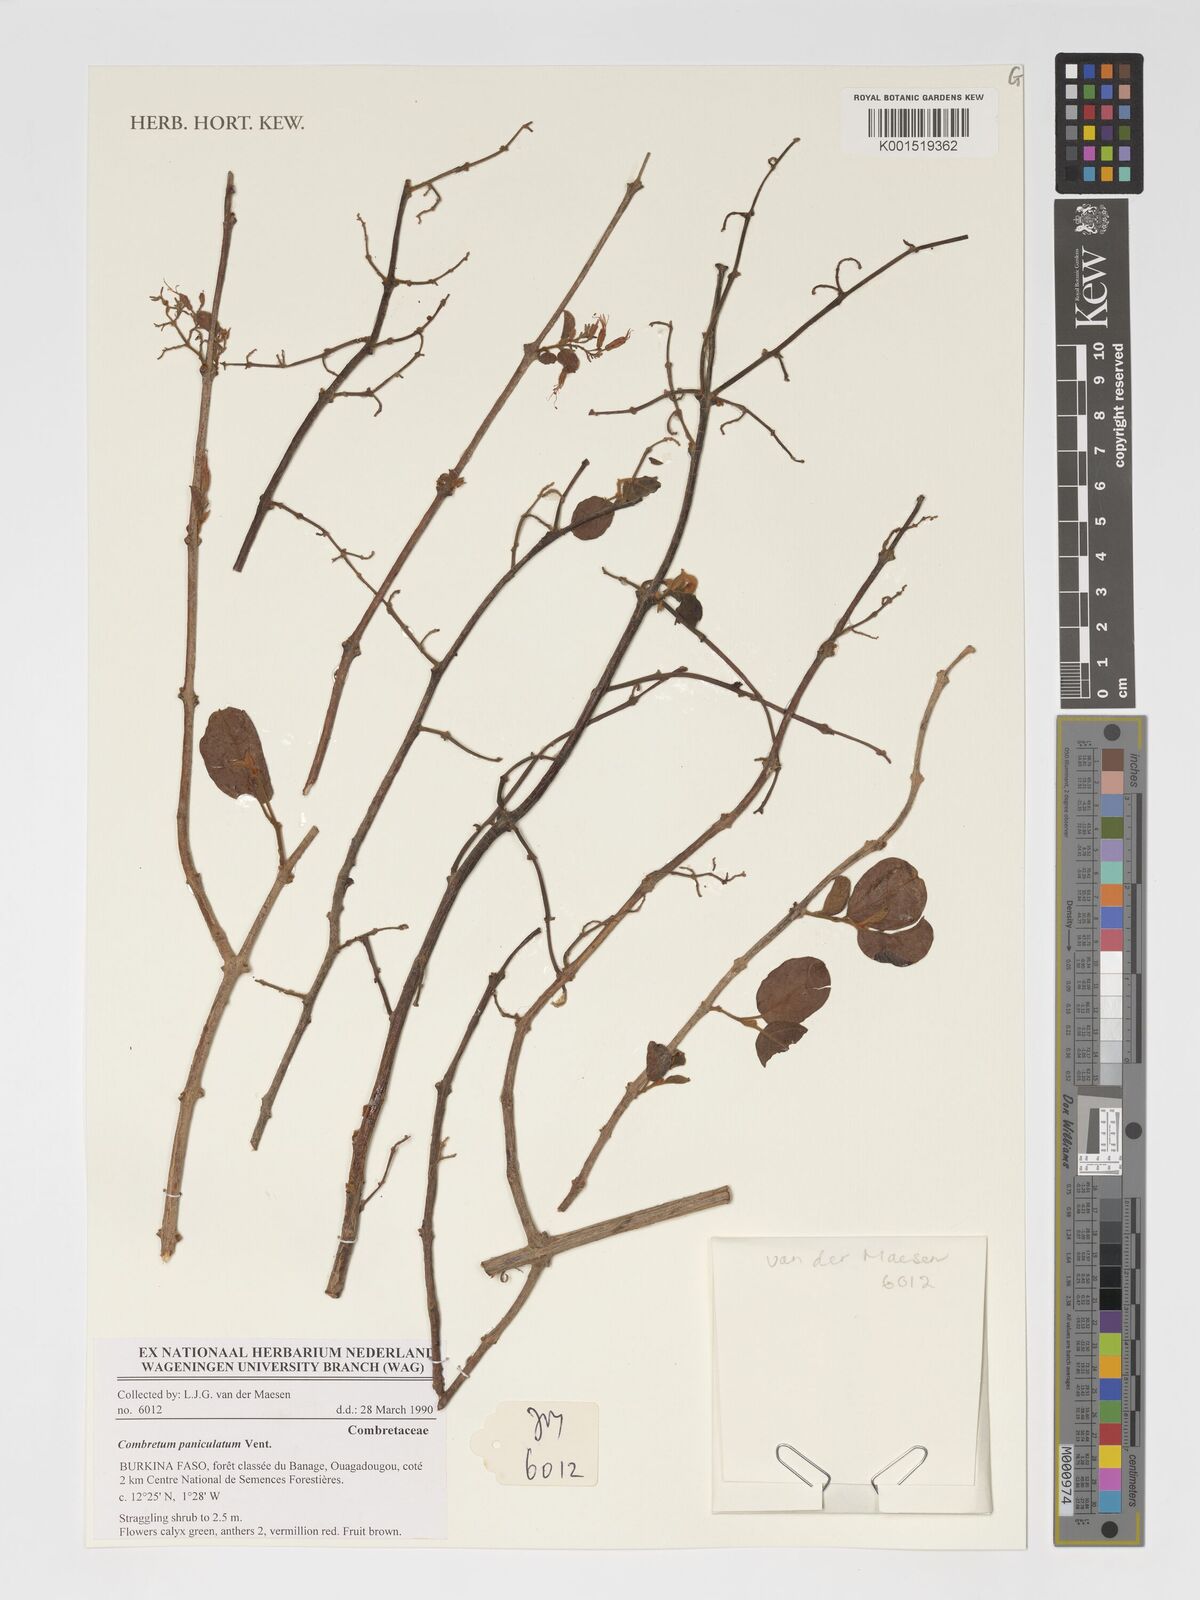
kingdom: Plantae
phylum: Tracheophyta
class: Magnoliopsida
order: Myrtales
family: Combretaceae
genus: Combretum
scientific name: Combretum paniculatum
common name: Fire vine
